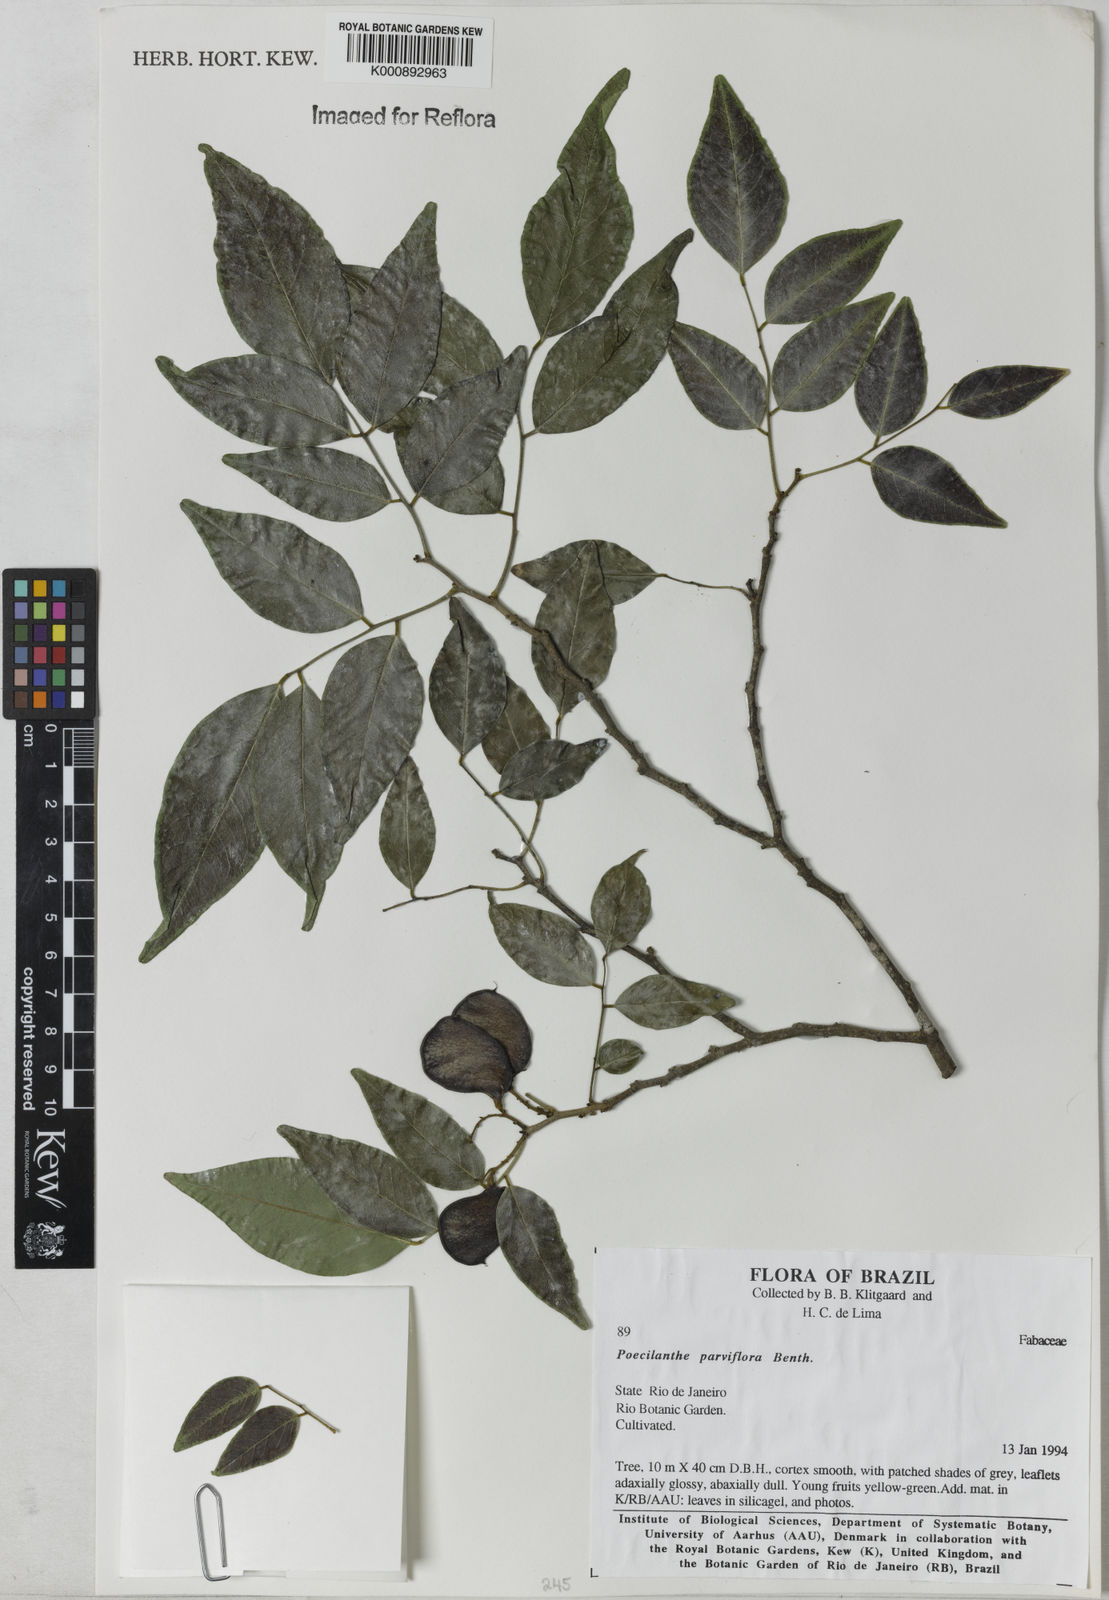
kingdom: Plantae
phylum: Tracheophyta
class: Magnoliopsida
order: Fabales
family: Fabaceae
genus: Poecilanthe
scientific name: Poecilanthe parviflora
